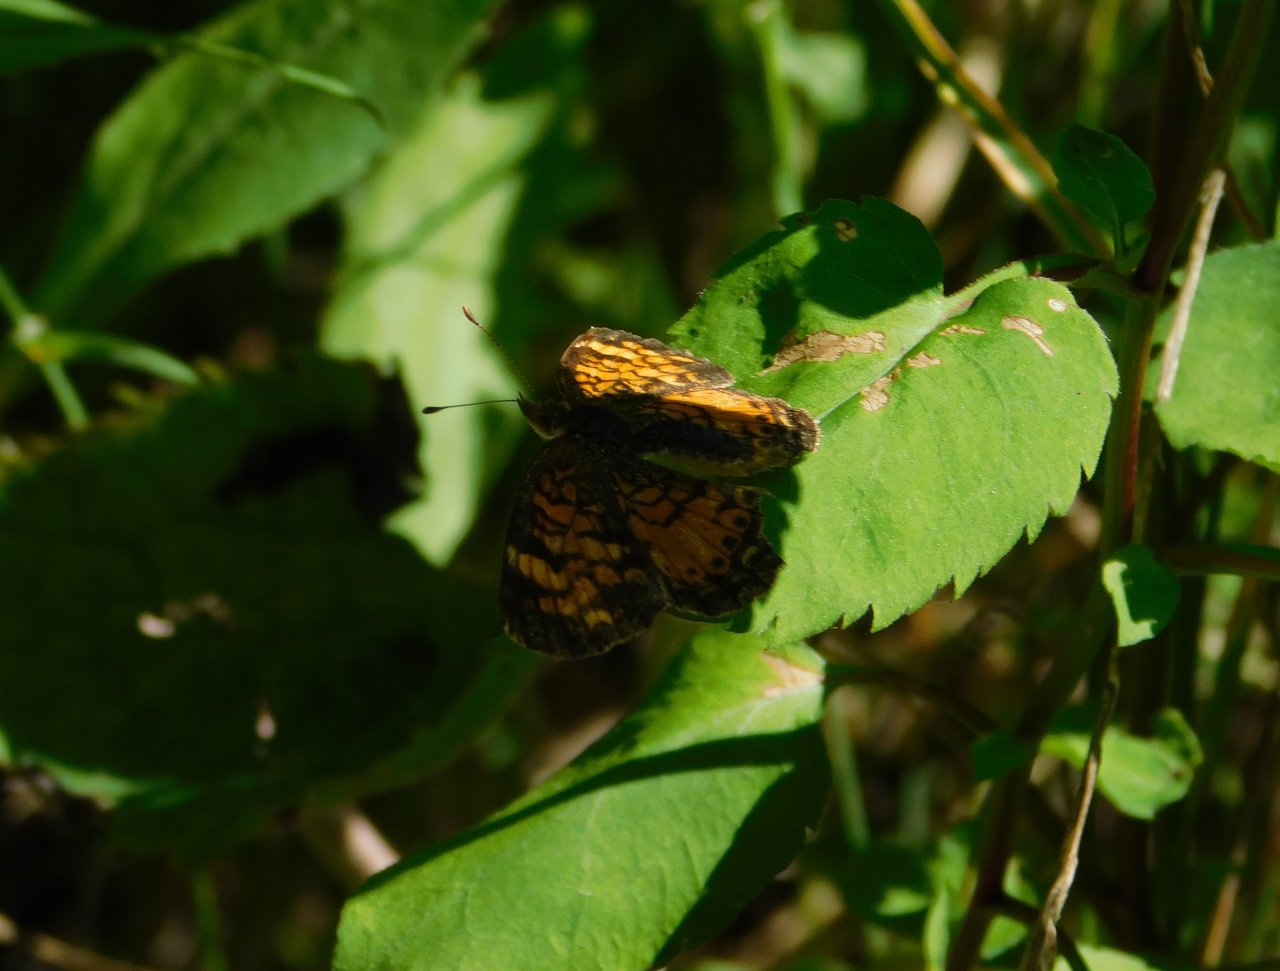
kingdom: Animalia
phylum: Arthropoda
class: Insecta
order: Lepidoptera
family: Nymphalidae
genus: Phyciodes
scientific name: Phyciodes tharos
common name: Northern Crescent
